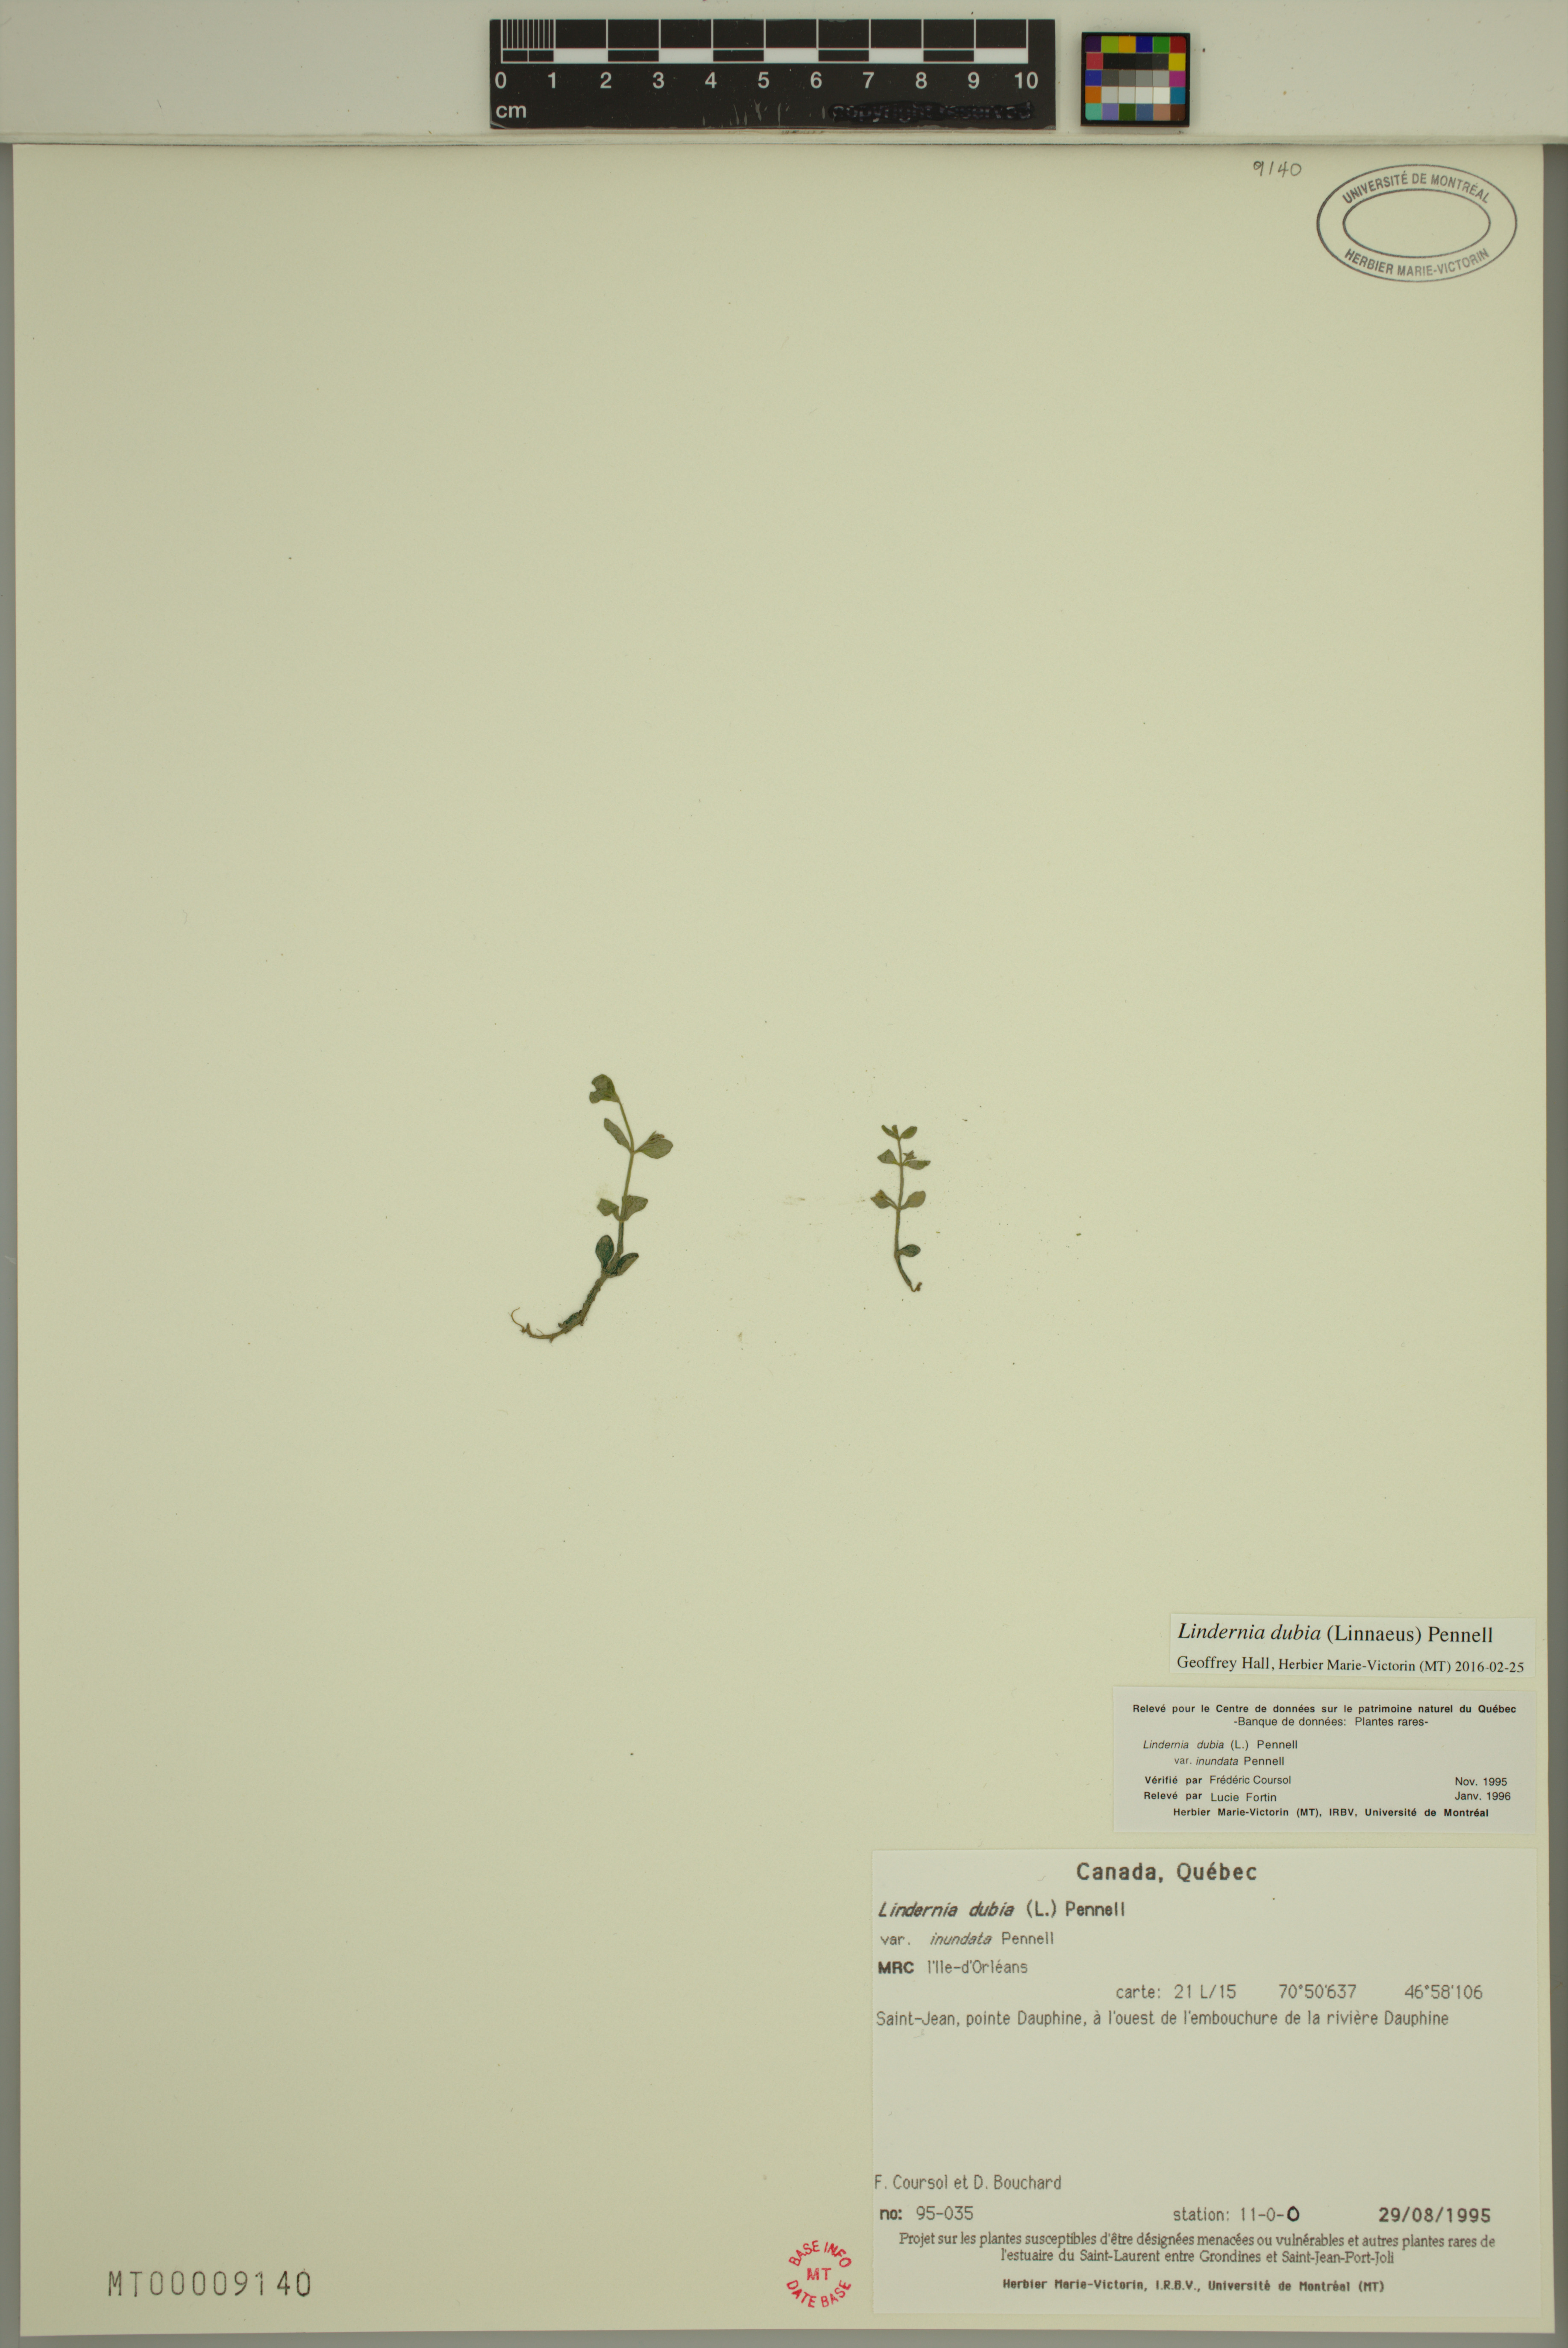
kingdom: Plantae
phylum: Tracheophyta
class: Magnoliopsida
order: Lamiales
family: Linderniaceae
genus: Lindernia
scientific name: Lindernia dubia
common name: Annual false pimpernel
